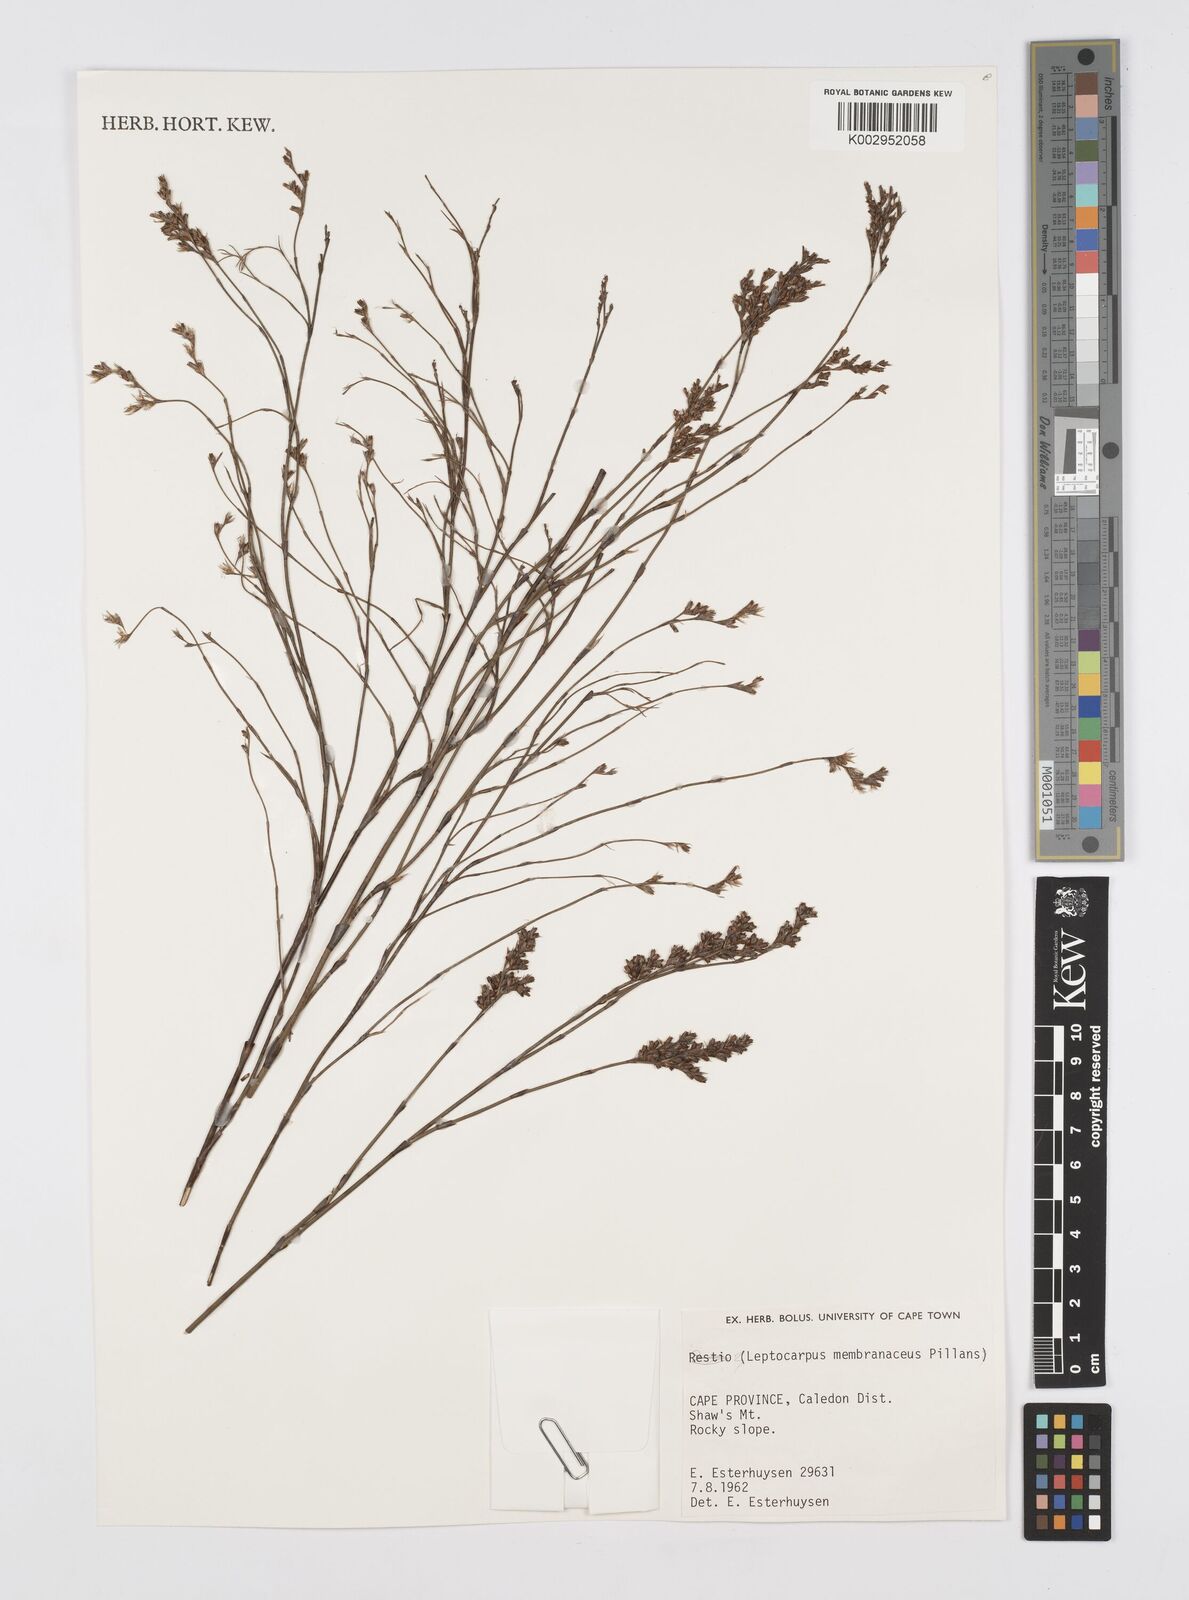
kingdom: Plantae
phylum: Tracheophyta
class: Liliopsida
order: Poales
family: Restionaceae
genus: Elegia
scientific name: Elegia intermedia
